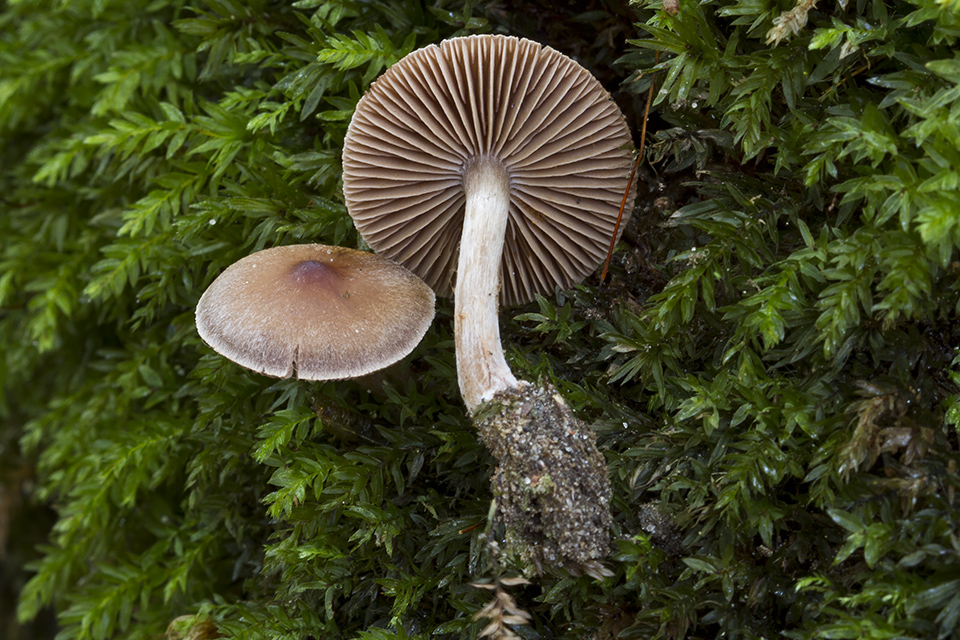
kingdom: Fungi
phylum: Basidiomycota
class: Agaricomycetes
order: Agaricales
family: Cortinariaceae
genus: Cortinarius
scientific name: Cortinarius praestigiosus
